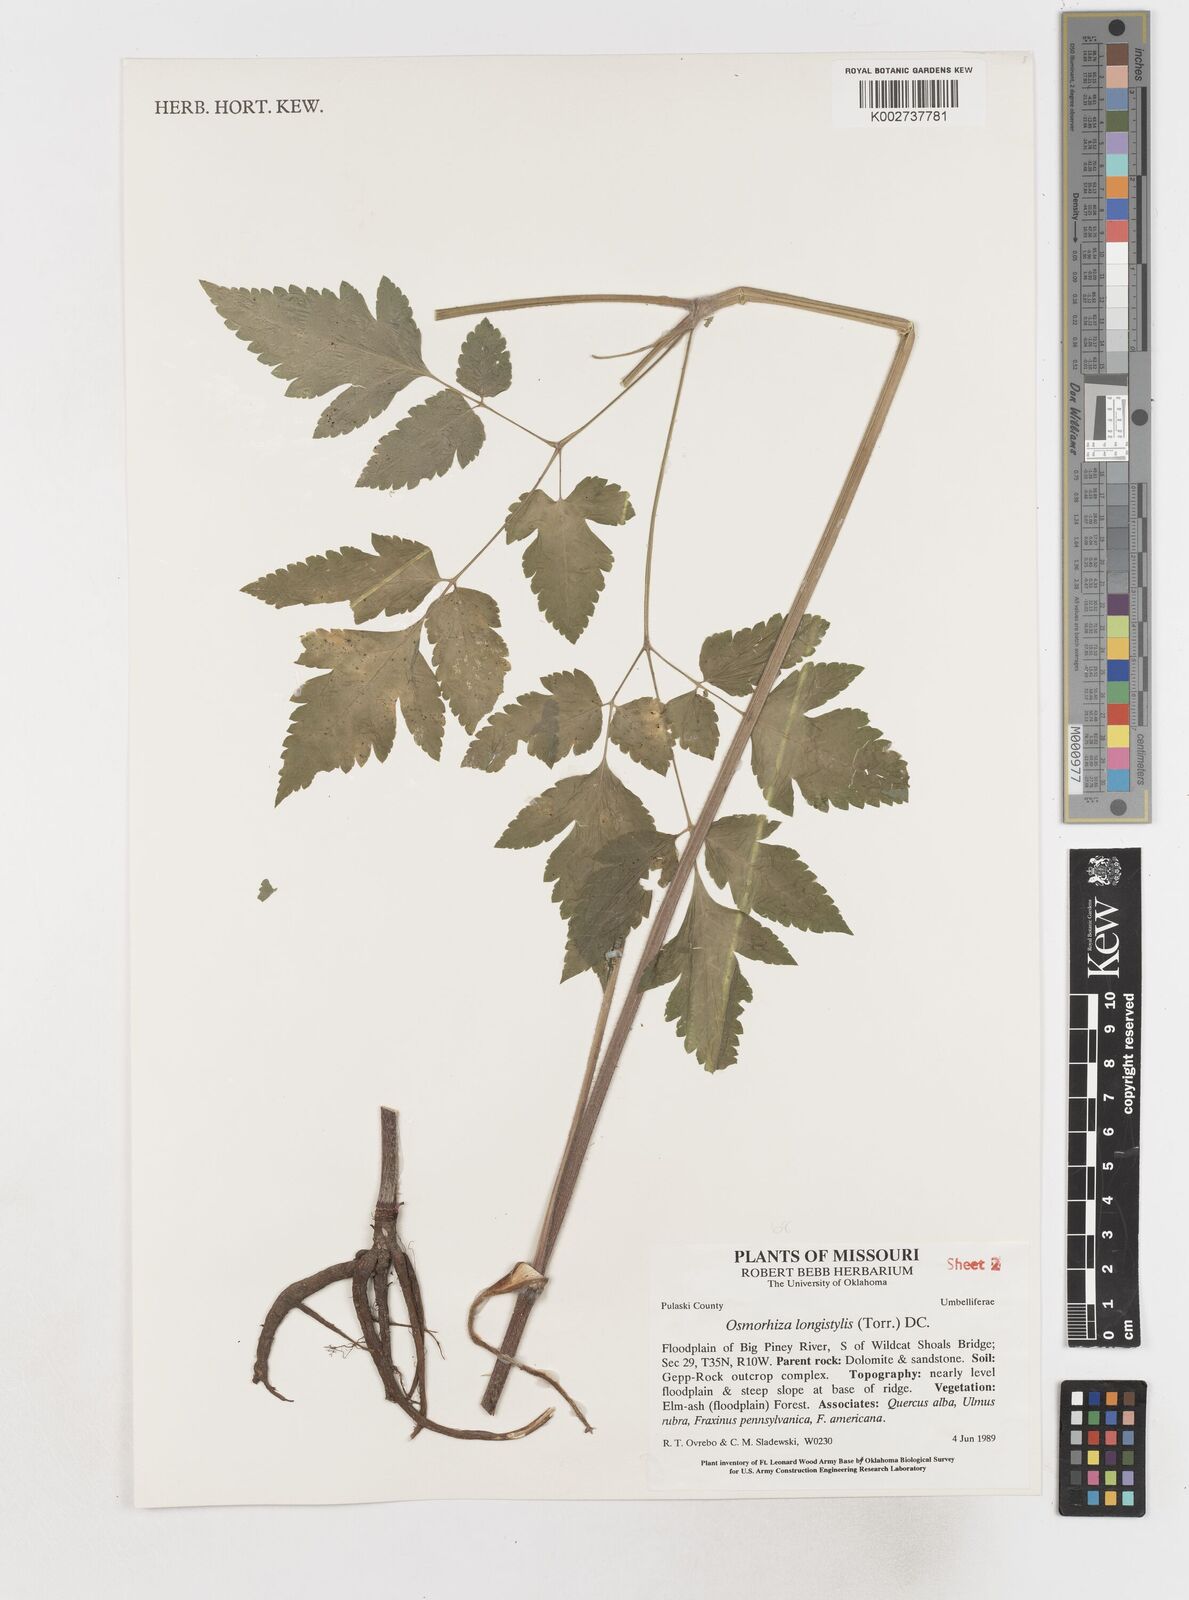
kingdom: Plantae
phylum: Tracheophyta
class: Magnoliopsida
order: Apiales
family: Apiaceae
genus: Osmorhiza
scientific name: Osmorhiza longistylis
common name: Smooth sweet cicely
